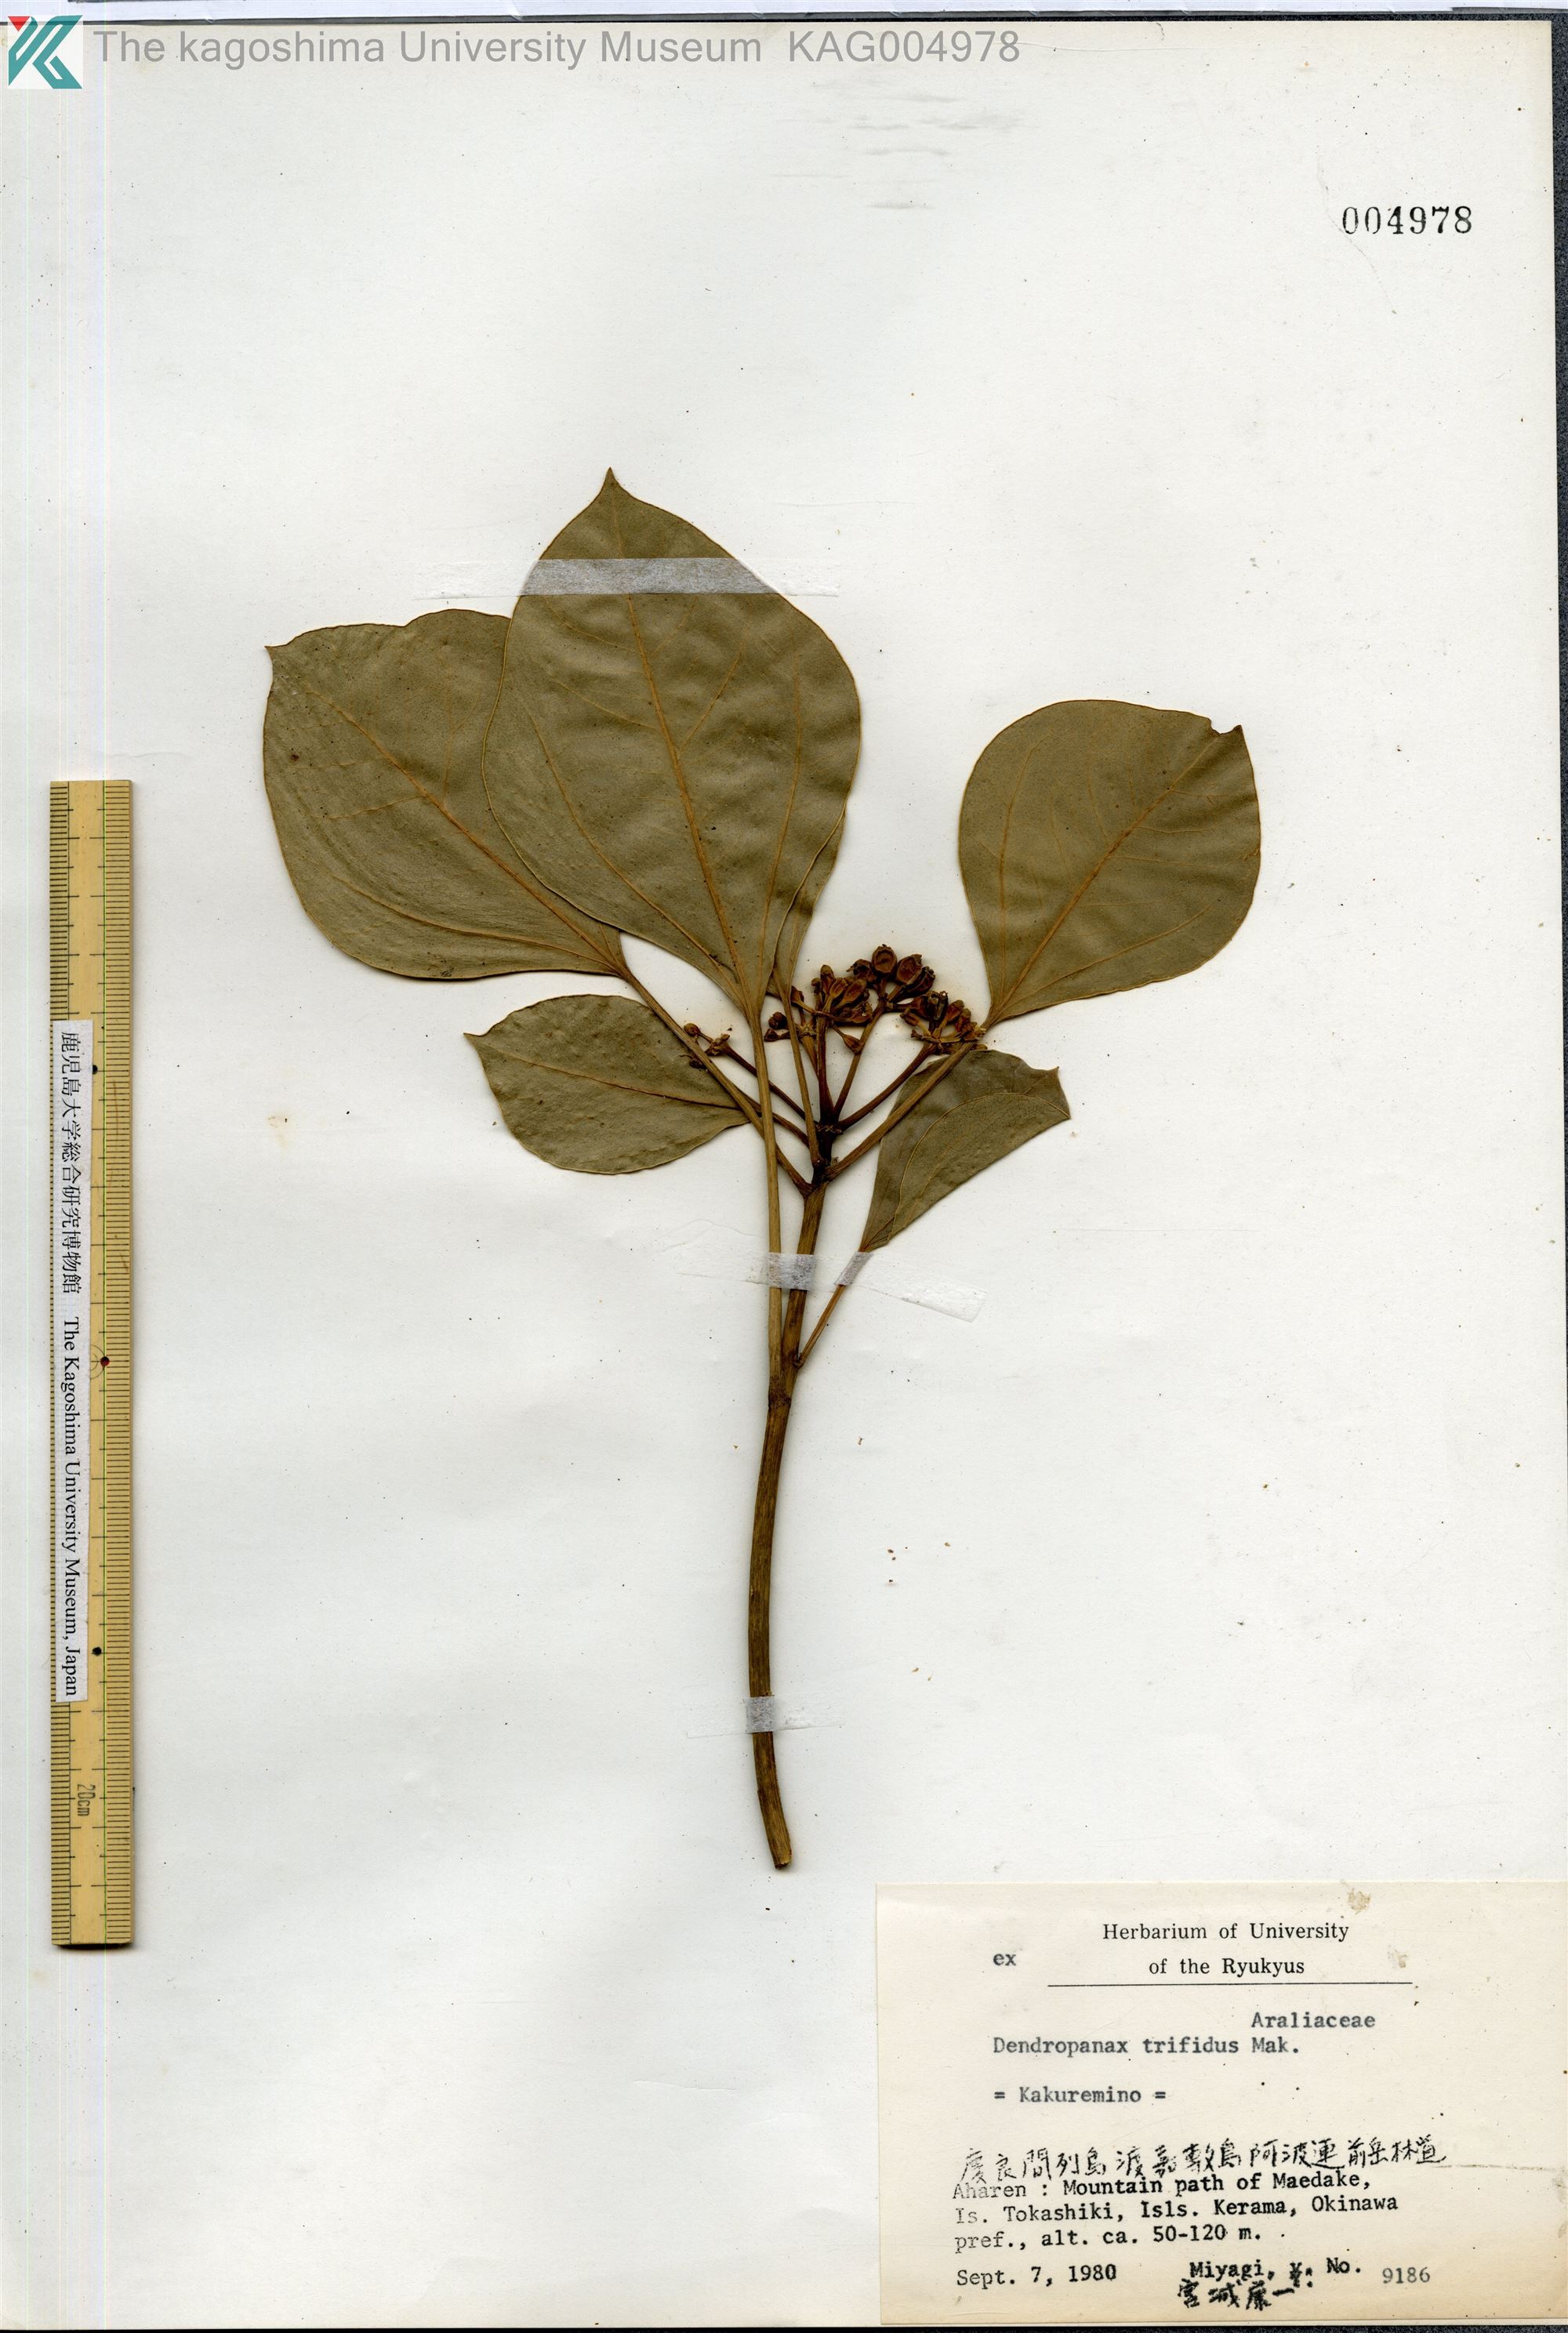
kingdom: Plantae
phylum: Tracheophyta
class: Magnoliopsida
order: Apiales
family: Araliaceae
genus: Dendropanax
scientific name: Dendropanax trifidus
